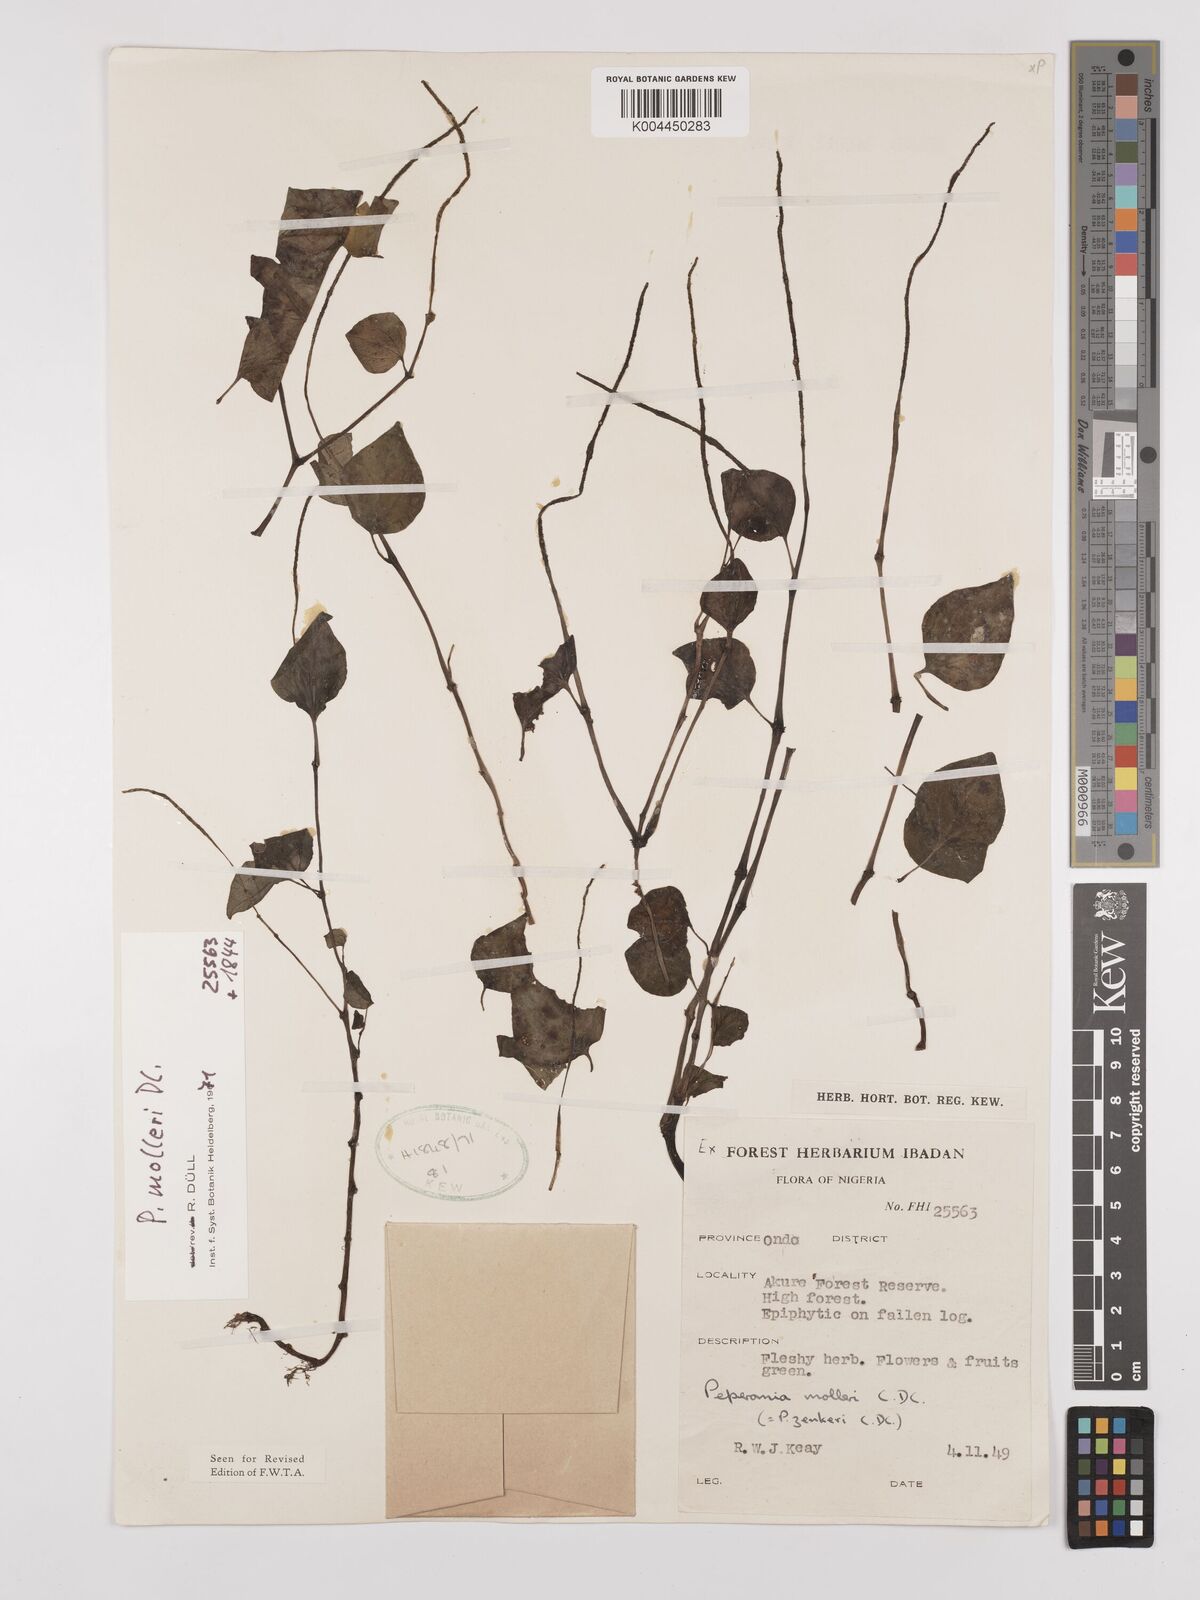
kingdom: Plantae
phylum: Tracheophyta
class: Magnoliopsida
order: Piperales
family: Piperaceae
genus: Peperomia
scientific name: Peperomia molleri
